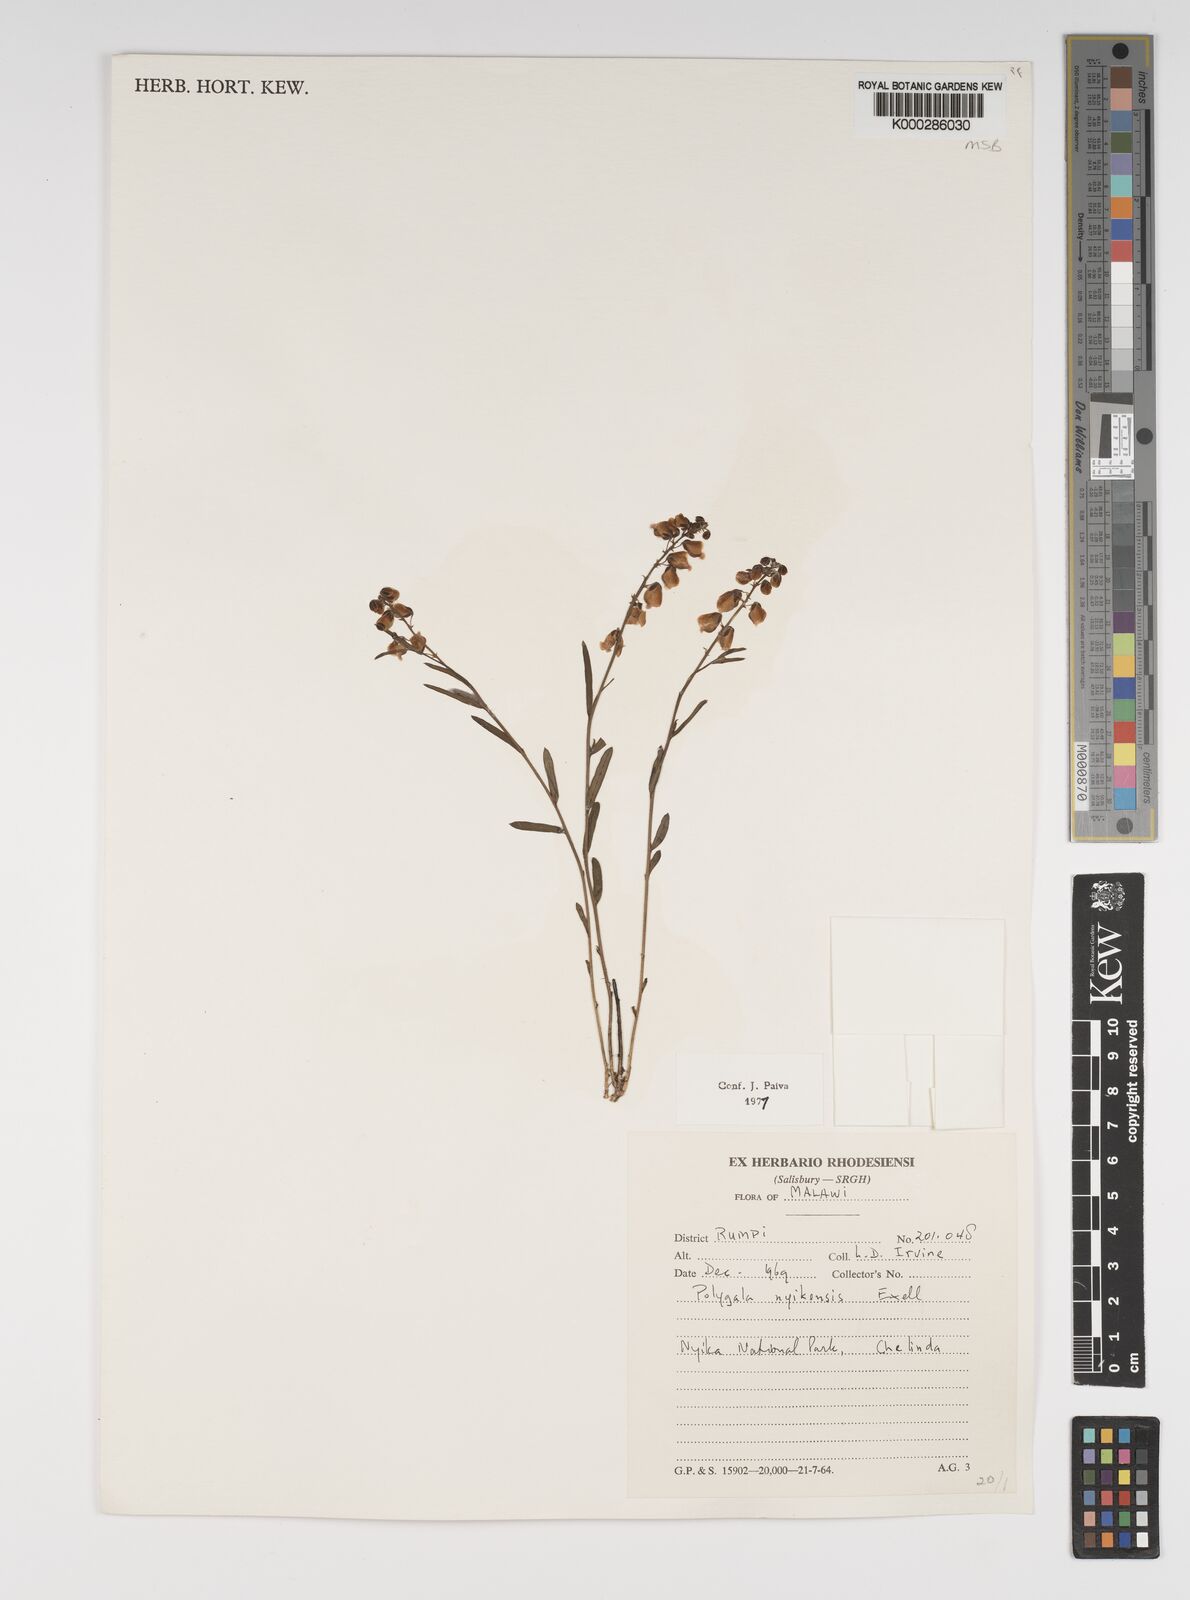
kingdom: Plantae
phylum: Tracheophyta
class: Magnoliopsida
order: Fabales
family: Polygalaceae
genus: Polygala
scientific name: Polygala nyikensis
